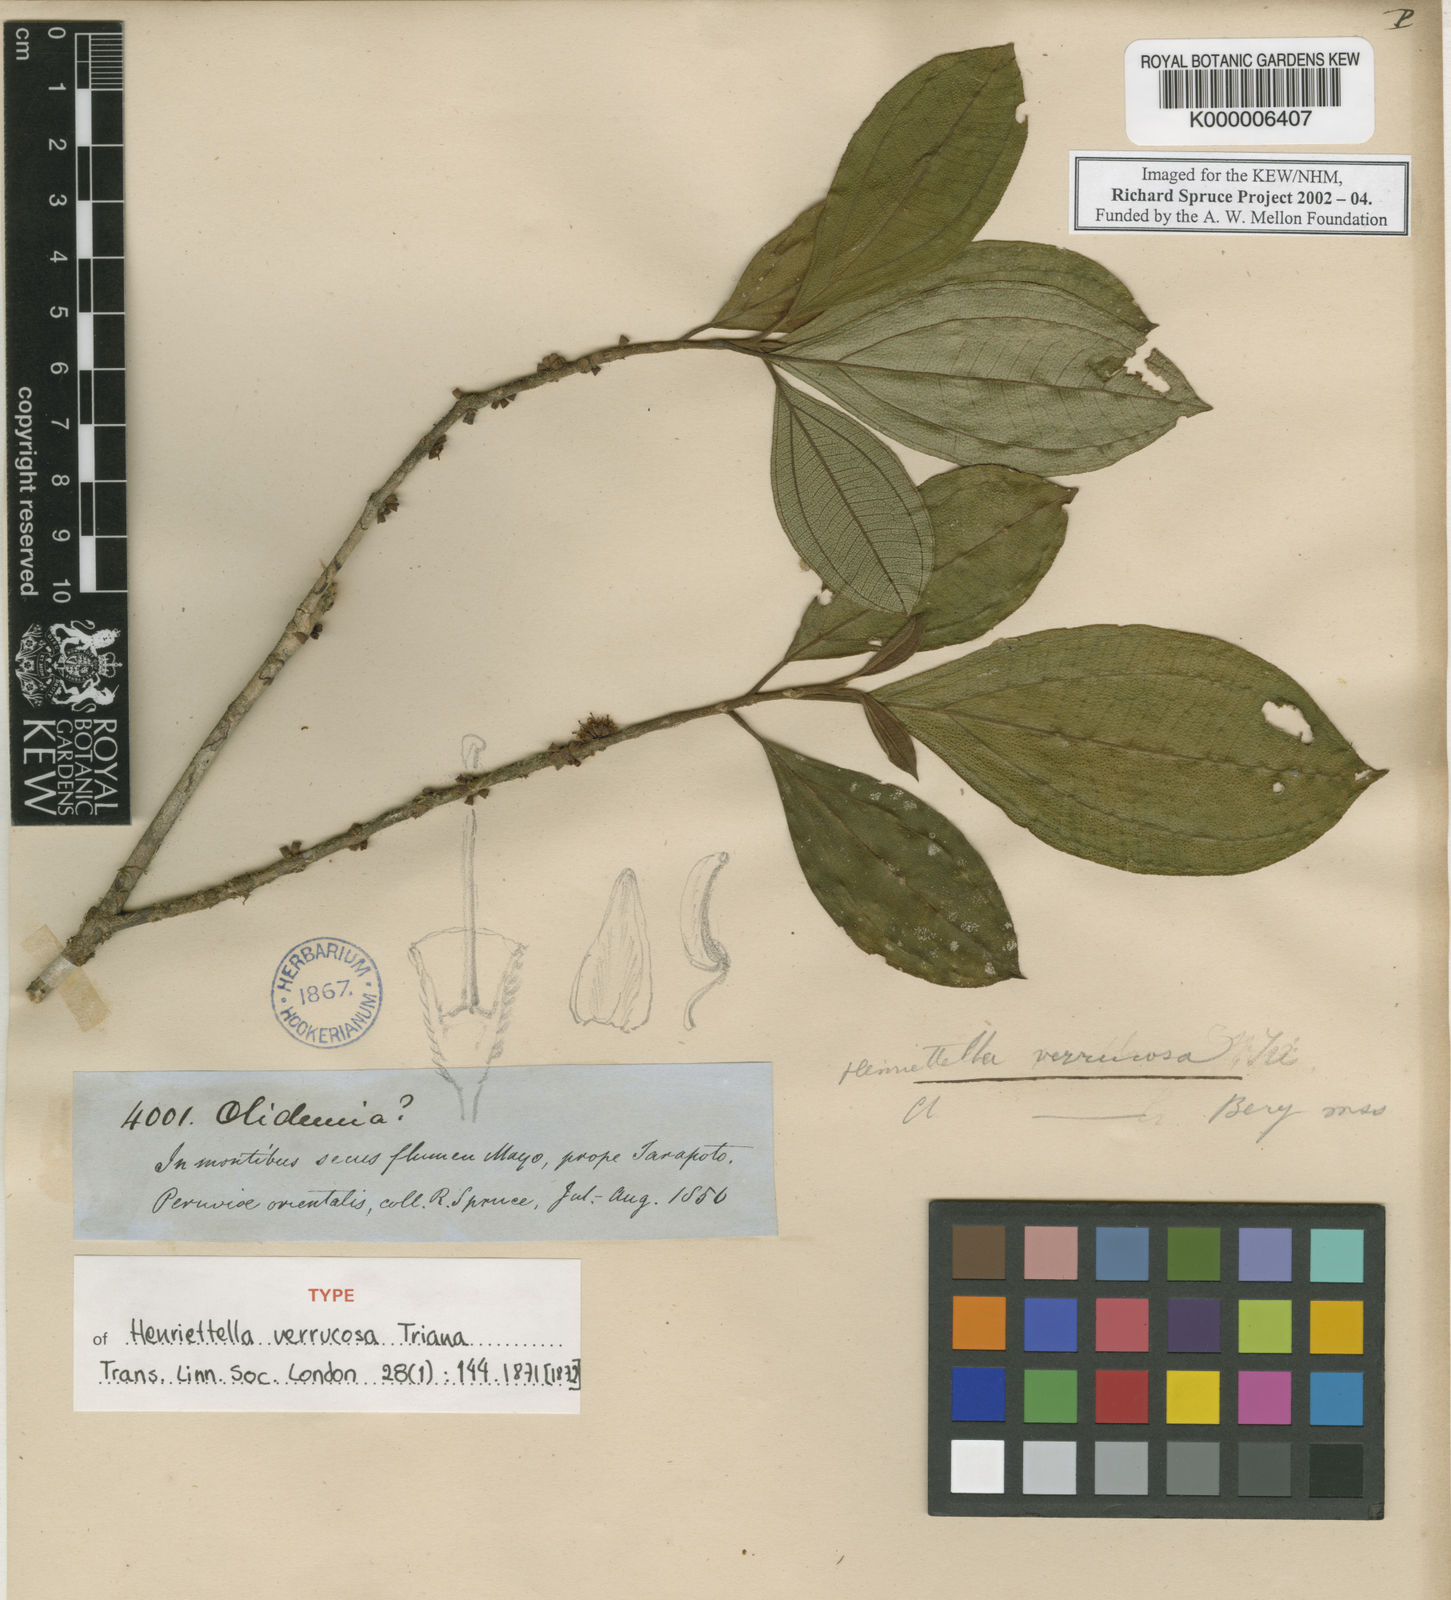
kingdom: Plantae
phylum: Tracheophyta
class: Magnoliopsida
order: Myrtales
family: Melastomataceae
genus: Henriettea
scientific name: Henriettea verrucosa
